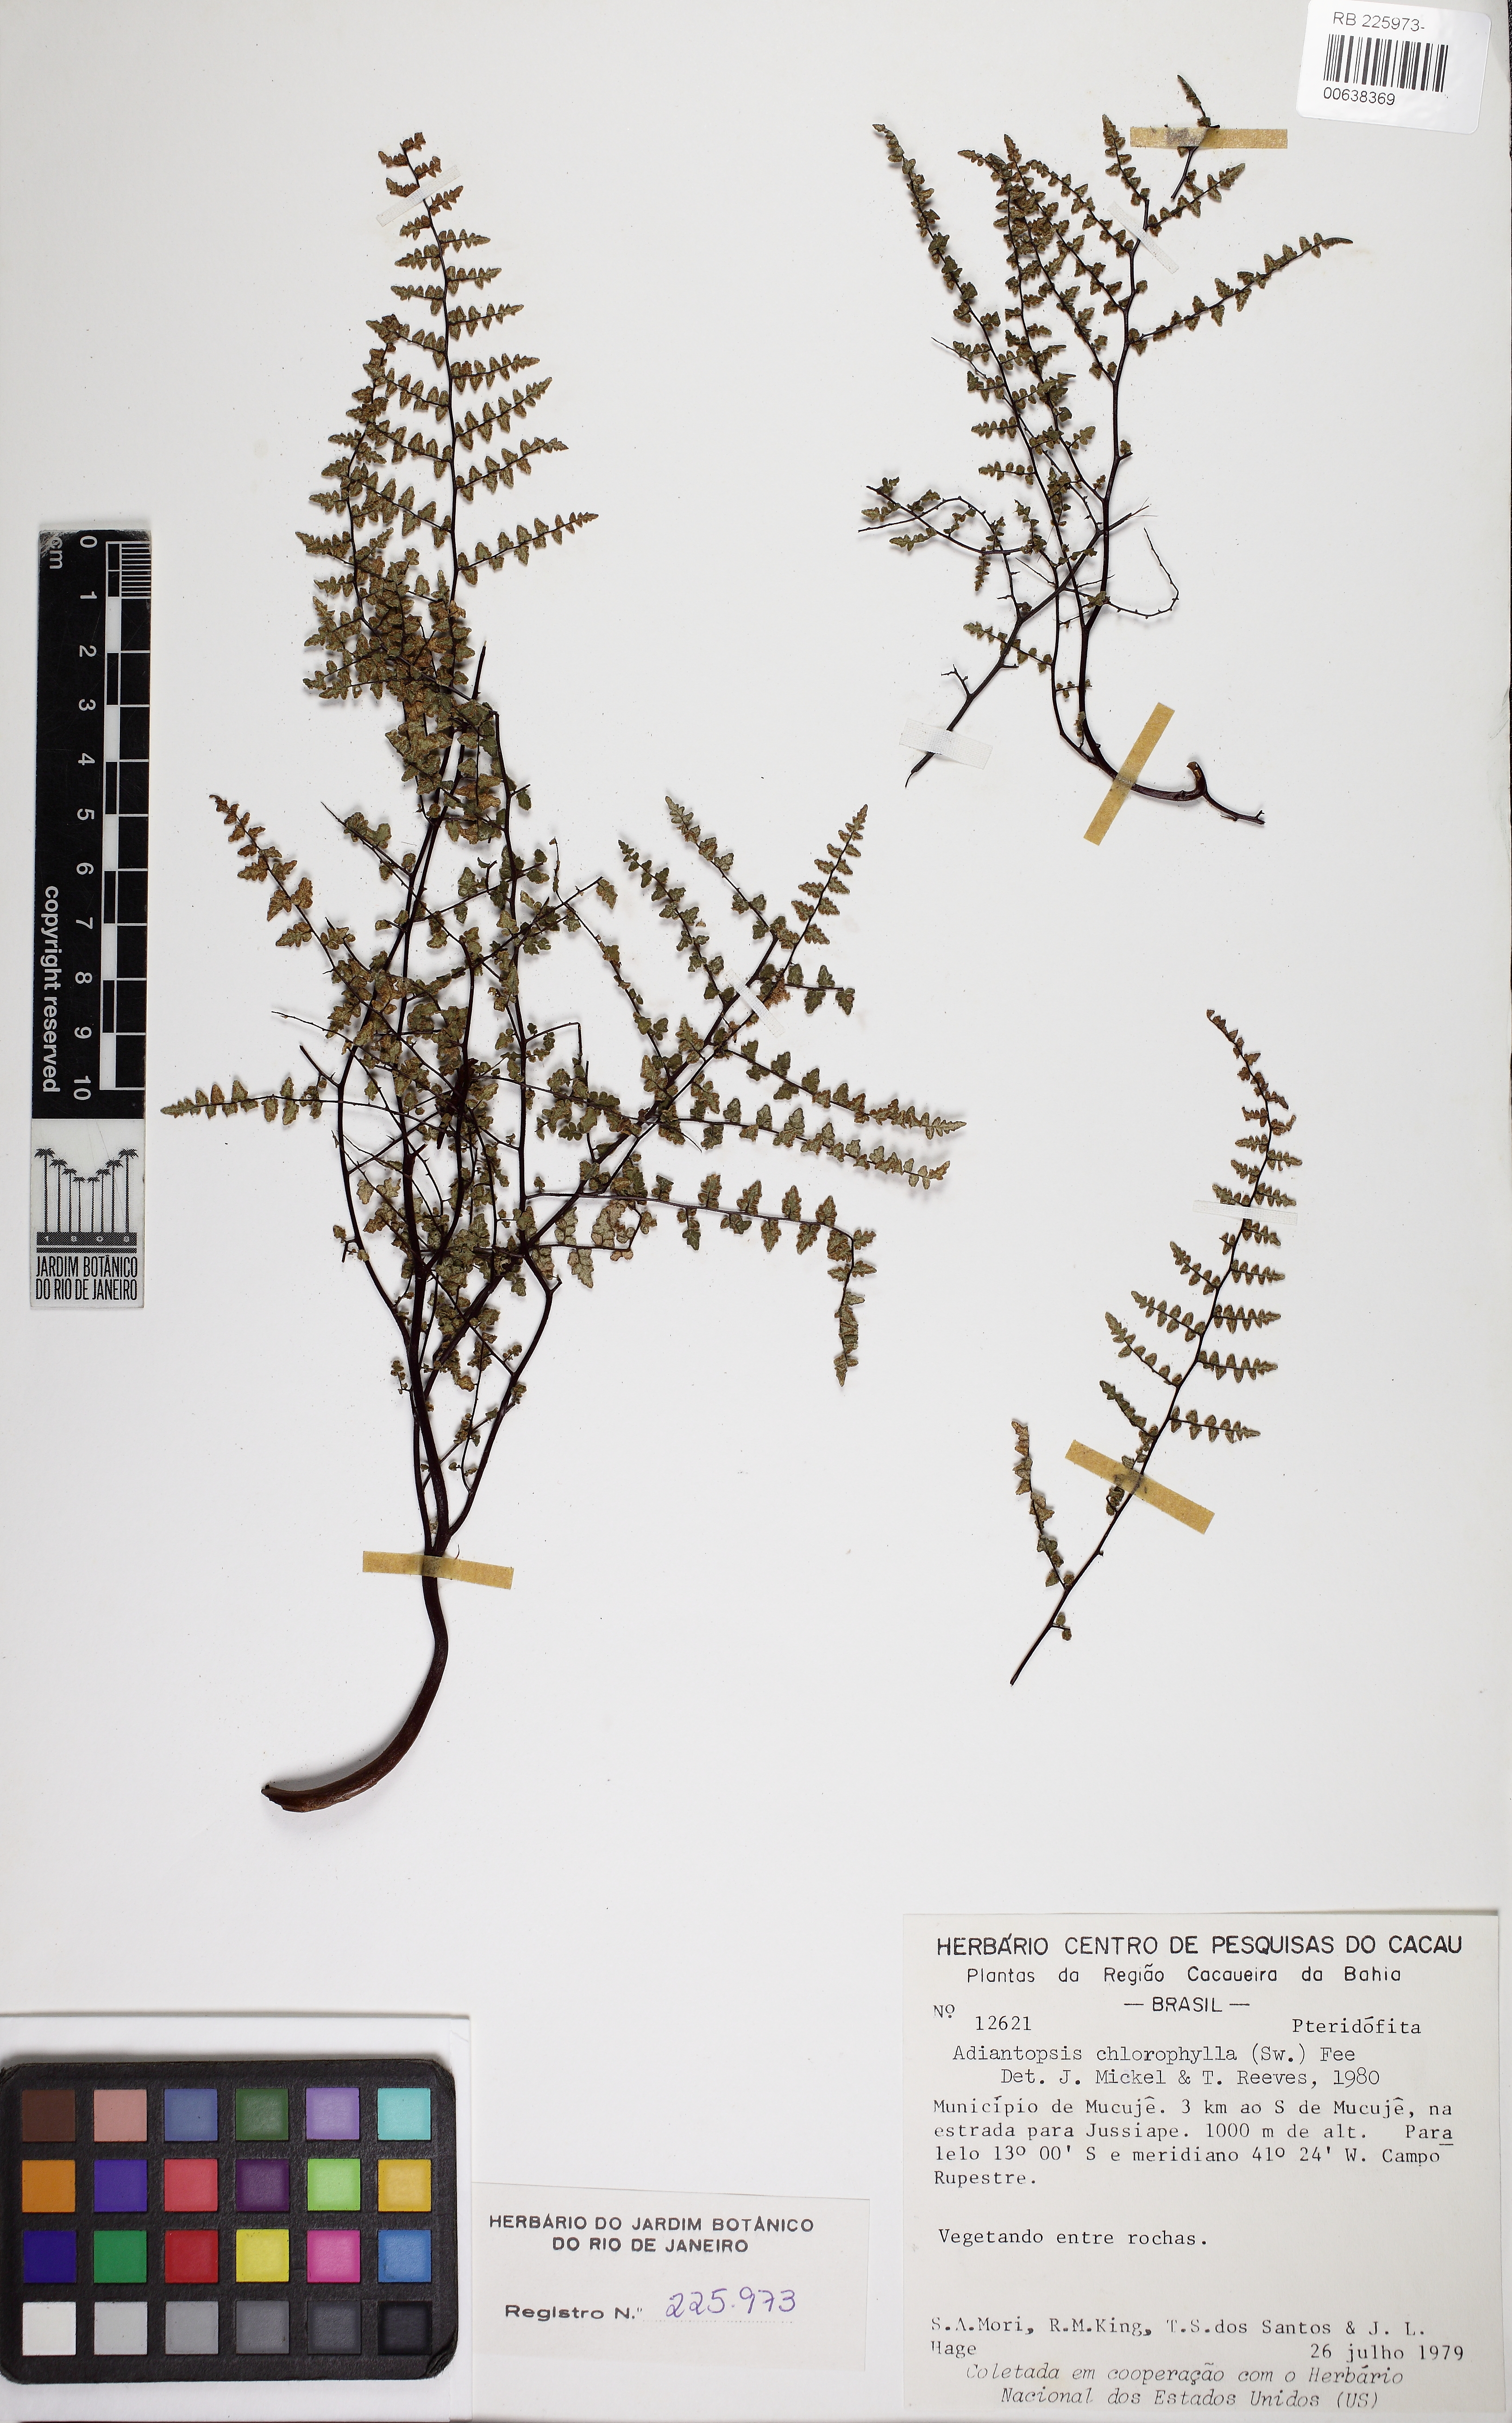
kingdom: Plantae
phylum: Tracheophyta
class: Polypodiopsida
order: Polypodiales
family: Pteridaceae
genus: Adiantopsis
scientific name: Adiantopsis chlorophylla
